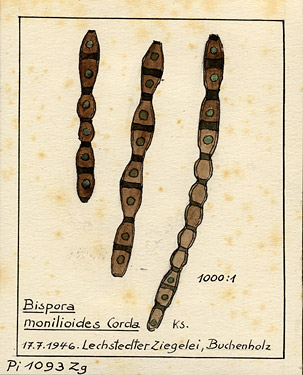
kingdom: Plantae
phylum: Tracheophyta
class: Magnoliopsida
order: Fagales
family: Fagaceae
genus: Fagus
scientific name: Fagus
